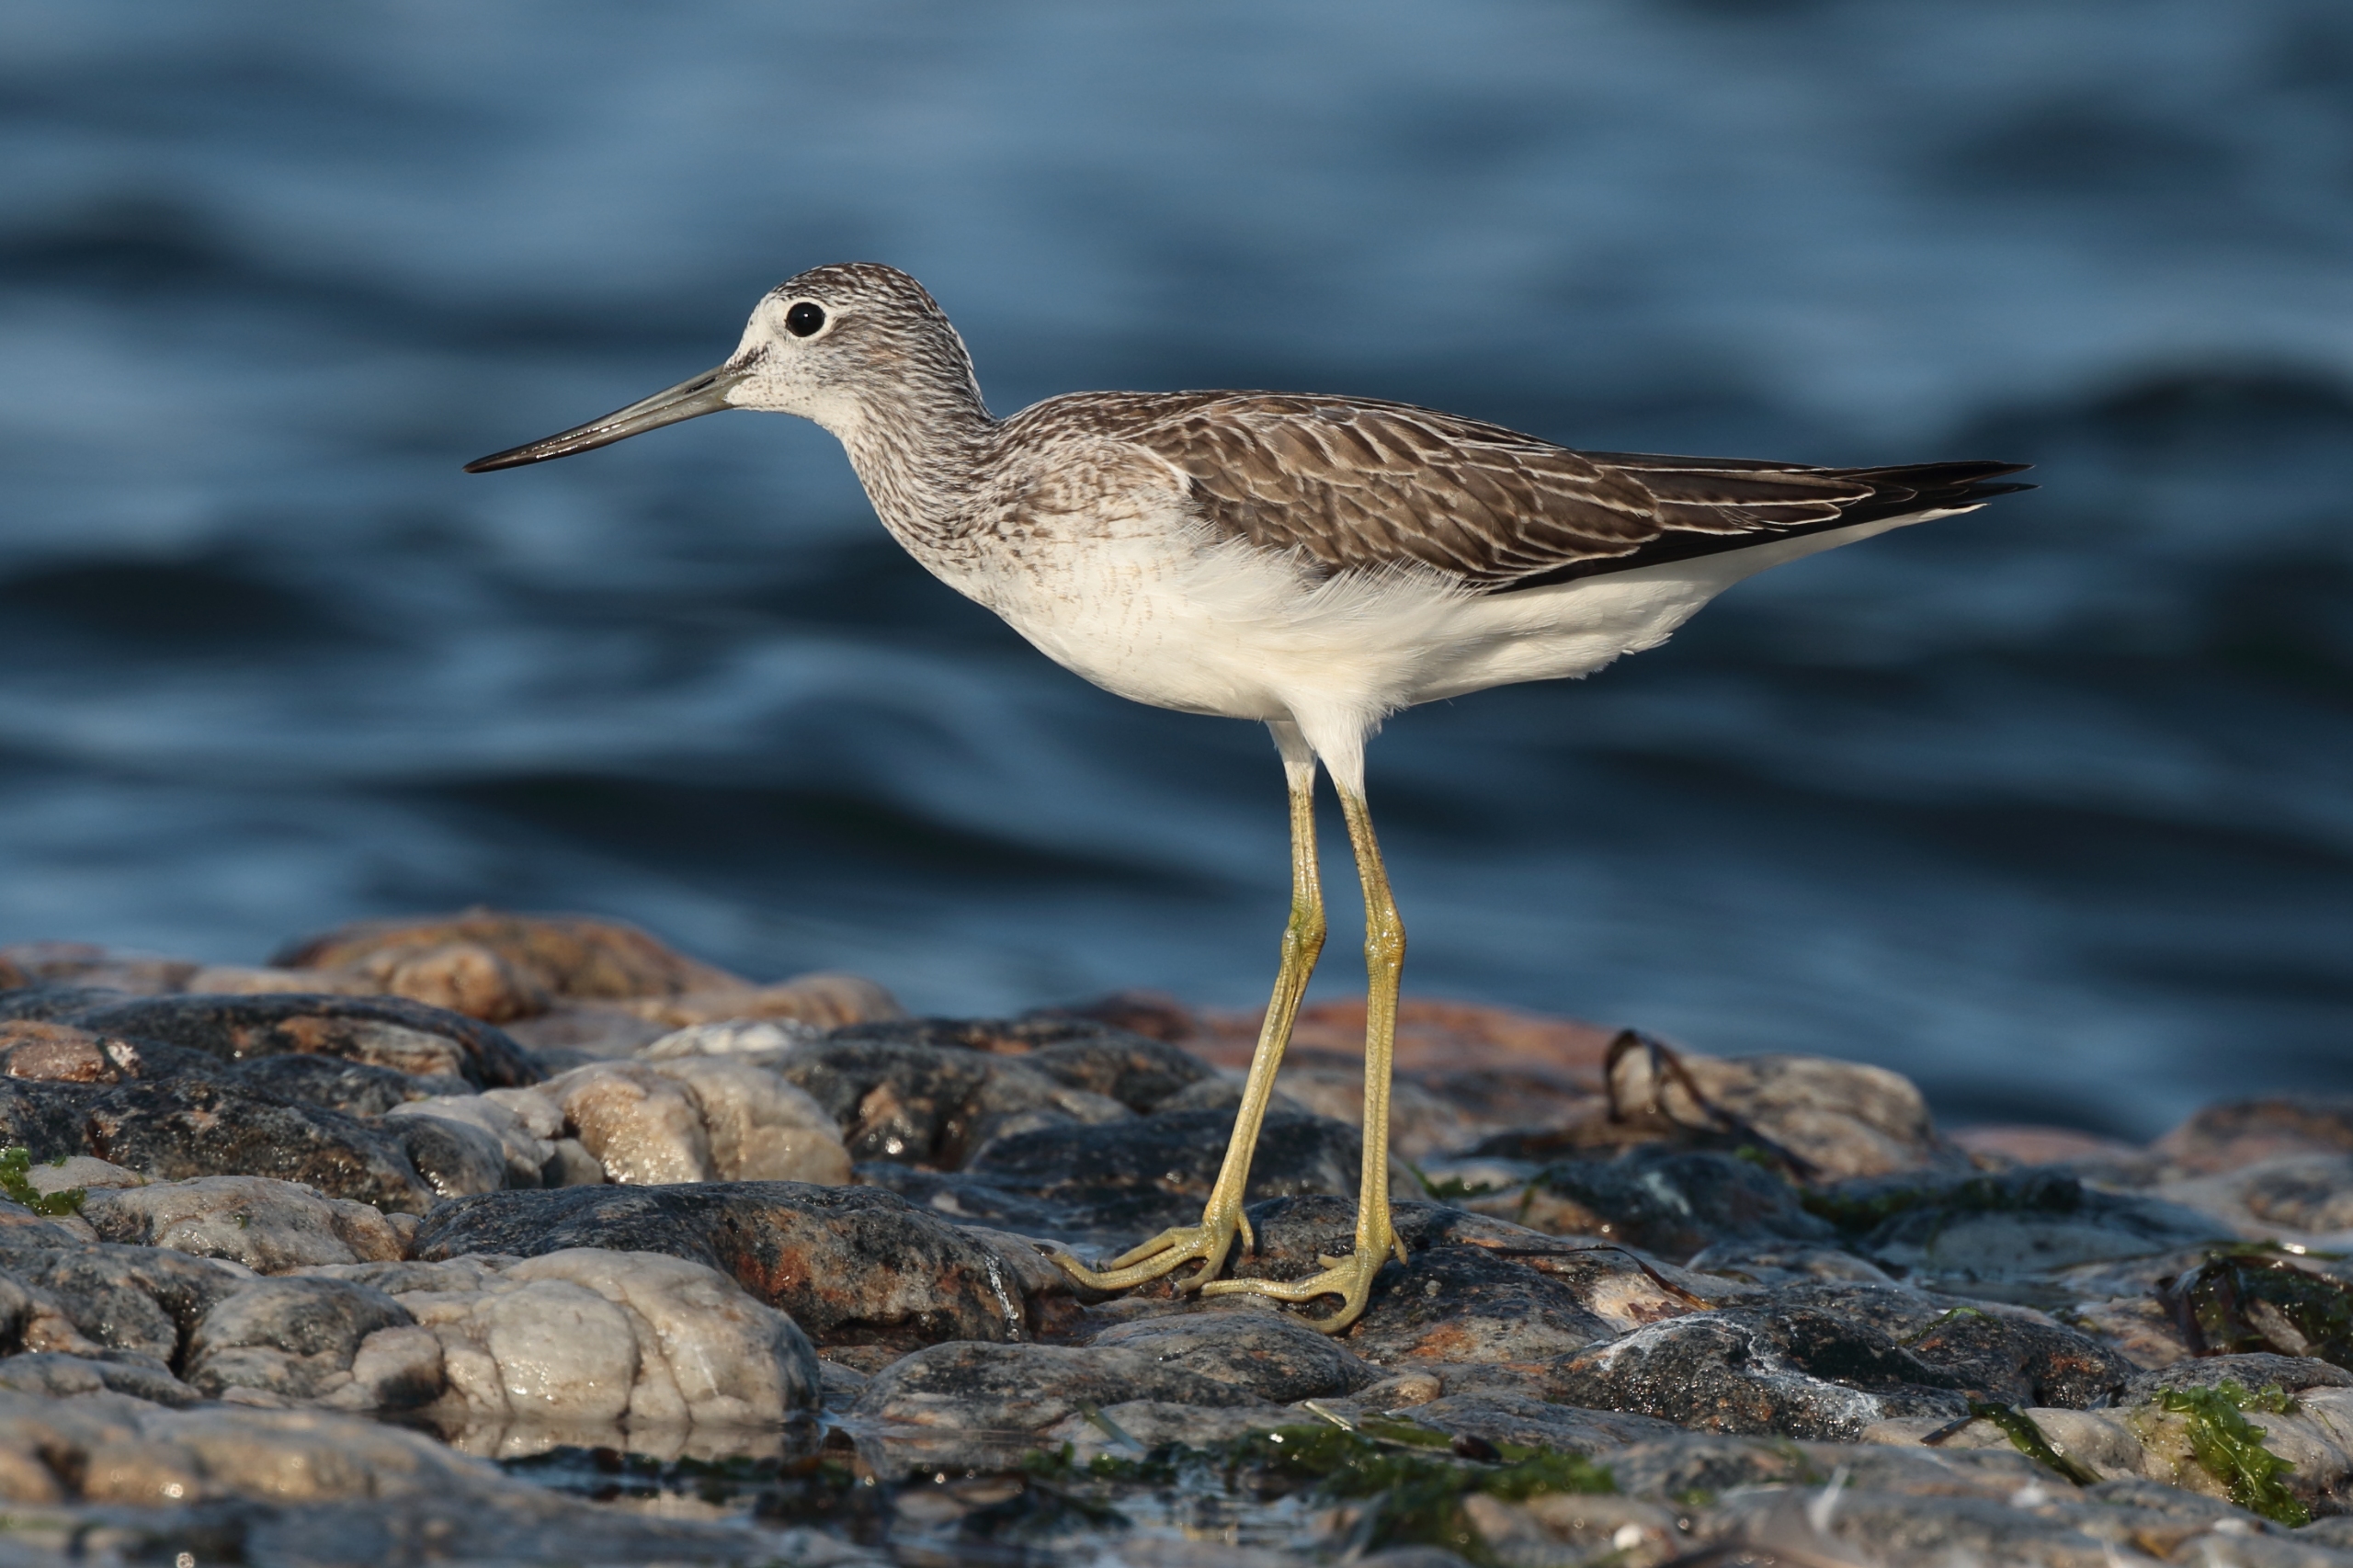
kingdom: Animalia
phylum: Chordata
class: Aves
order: Charadriiformes
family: Scolopacidae
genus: Tringa
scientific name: Tringa nebularia
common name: Hvidklire
